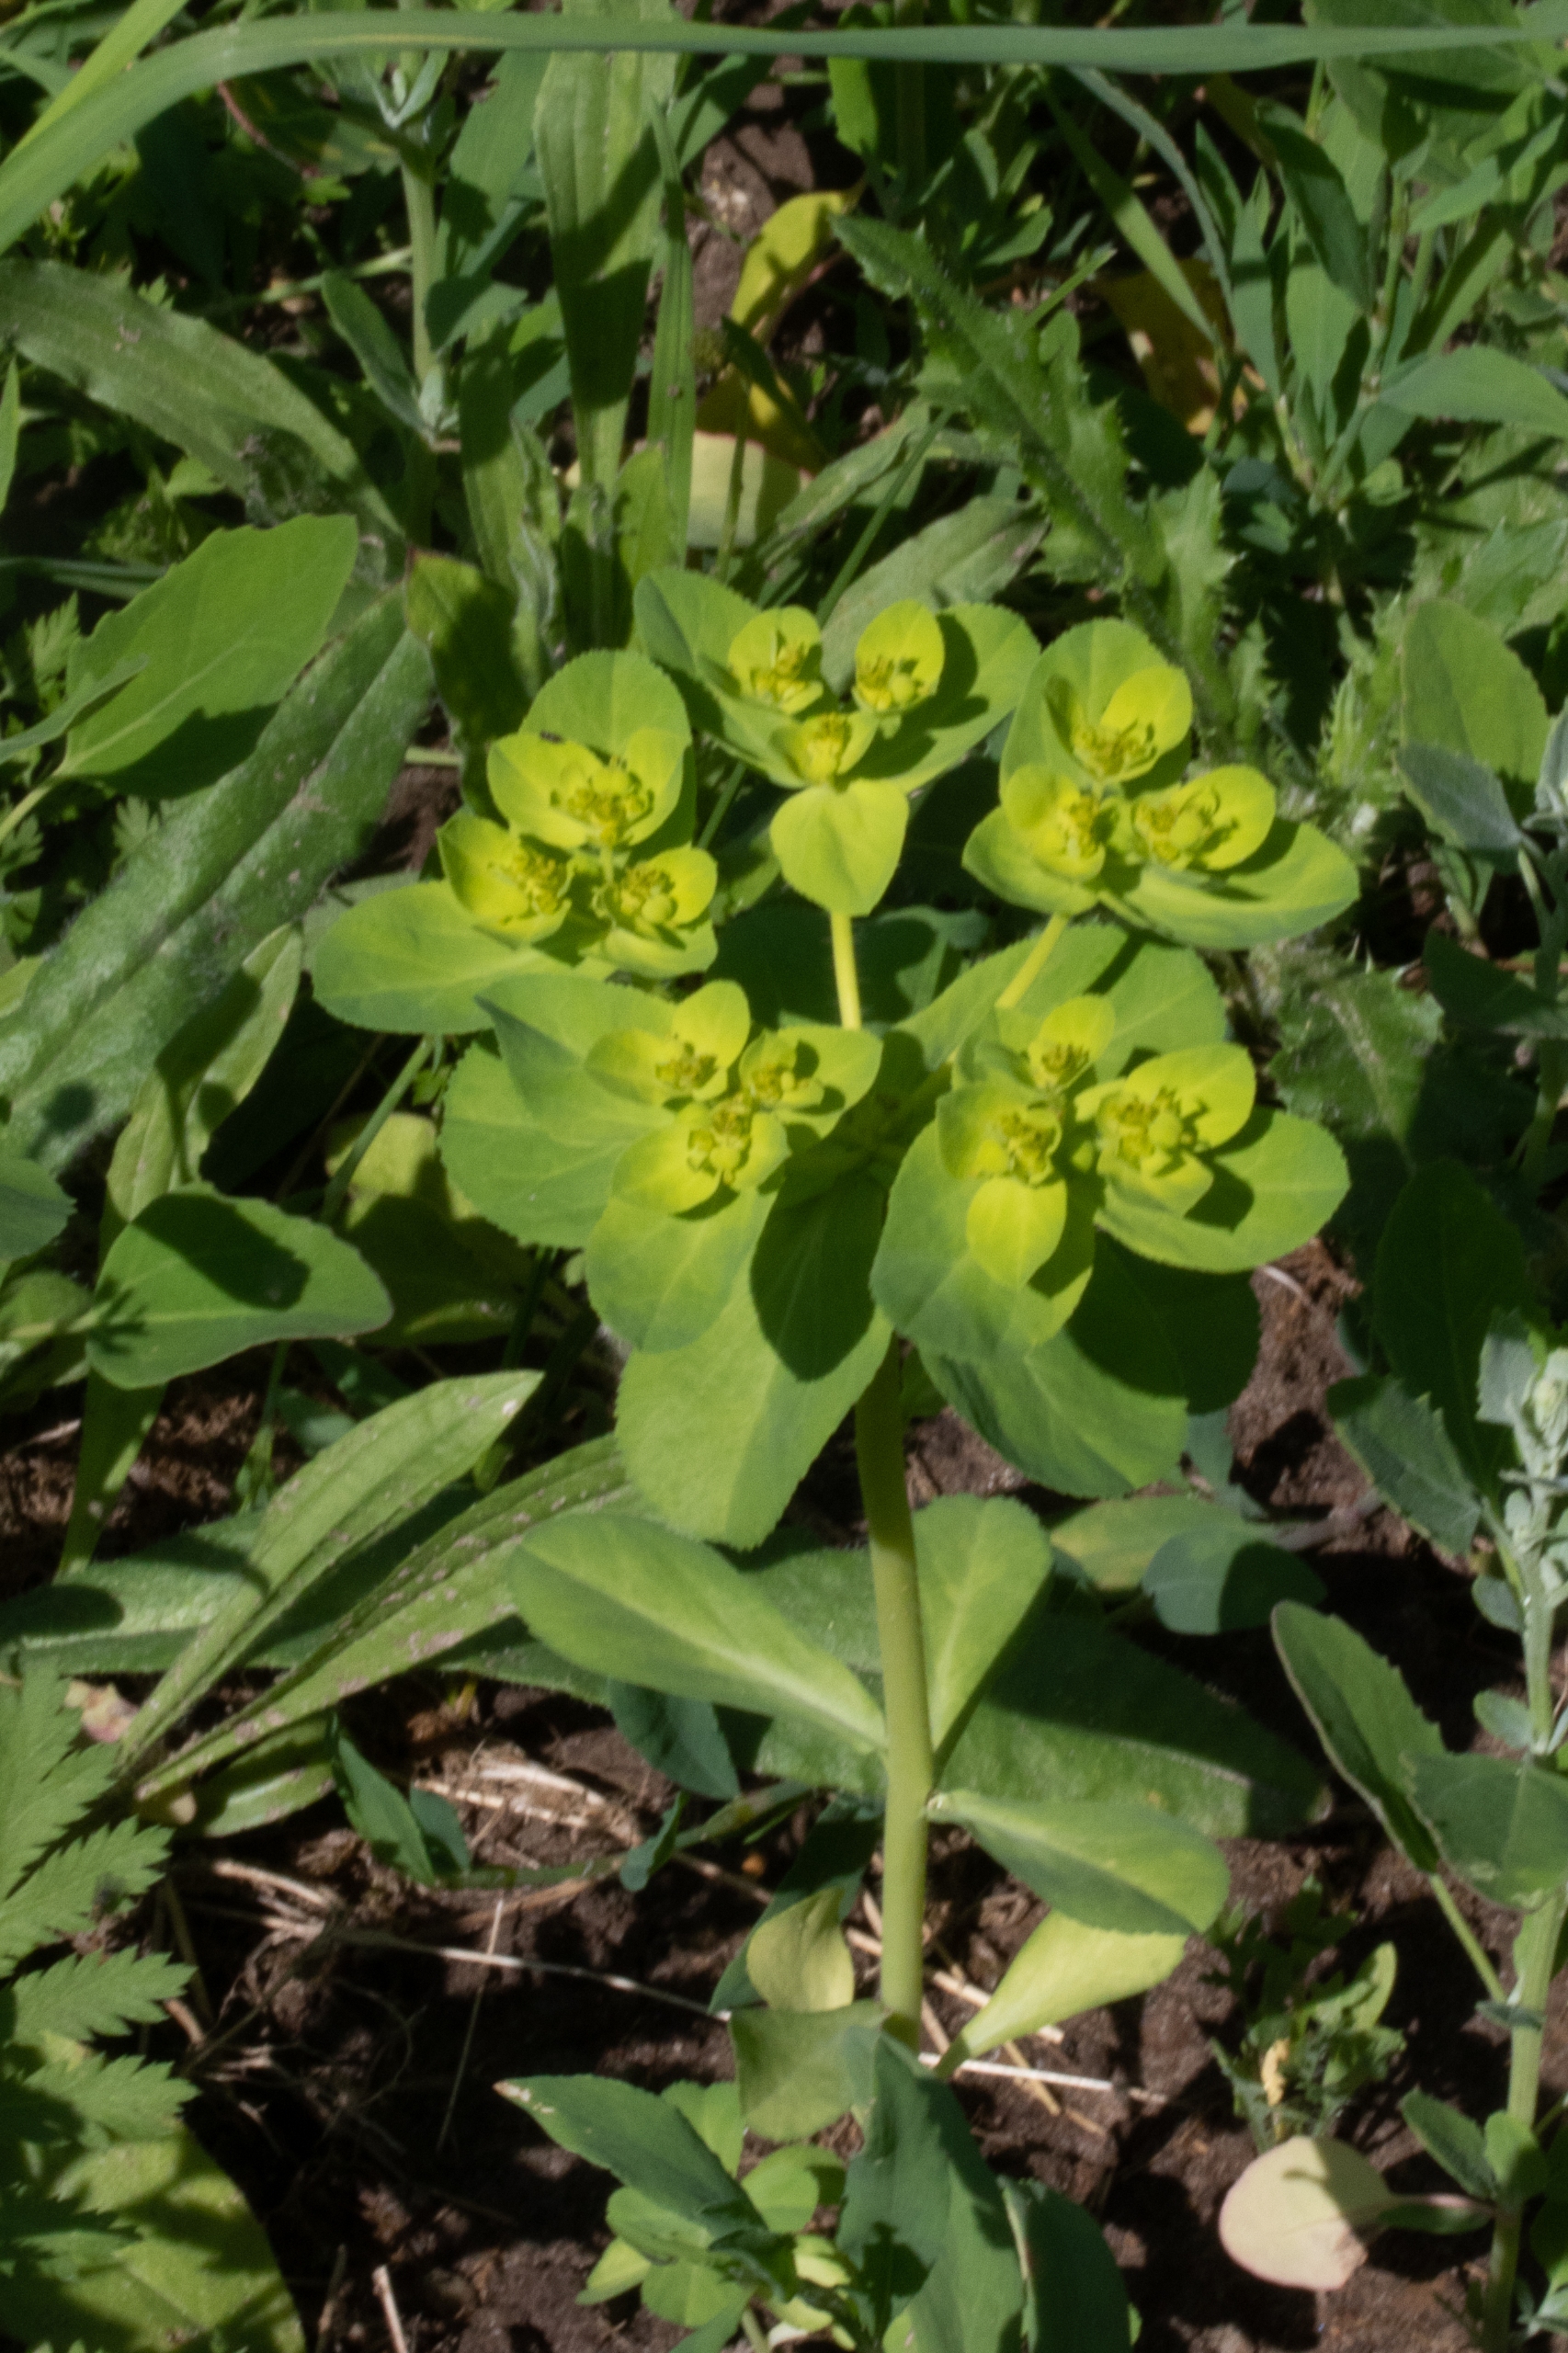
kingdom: Plantae
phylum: Tracheophyta
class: Magnoliopsida
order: Malpighiales
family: Euphorbiaceae
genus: Euphorbia
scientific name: Euphorbia helioscopia
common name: Skærm-vortemælk
